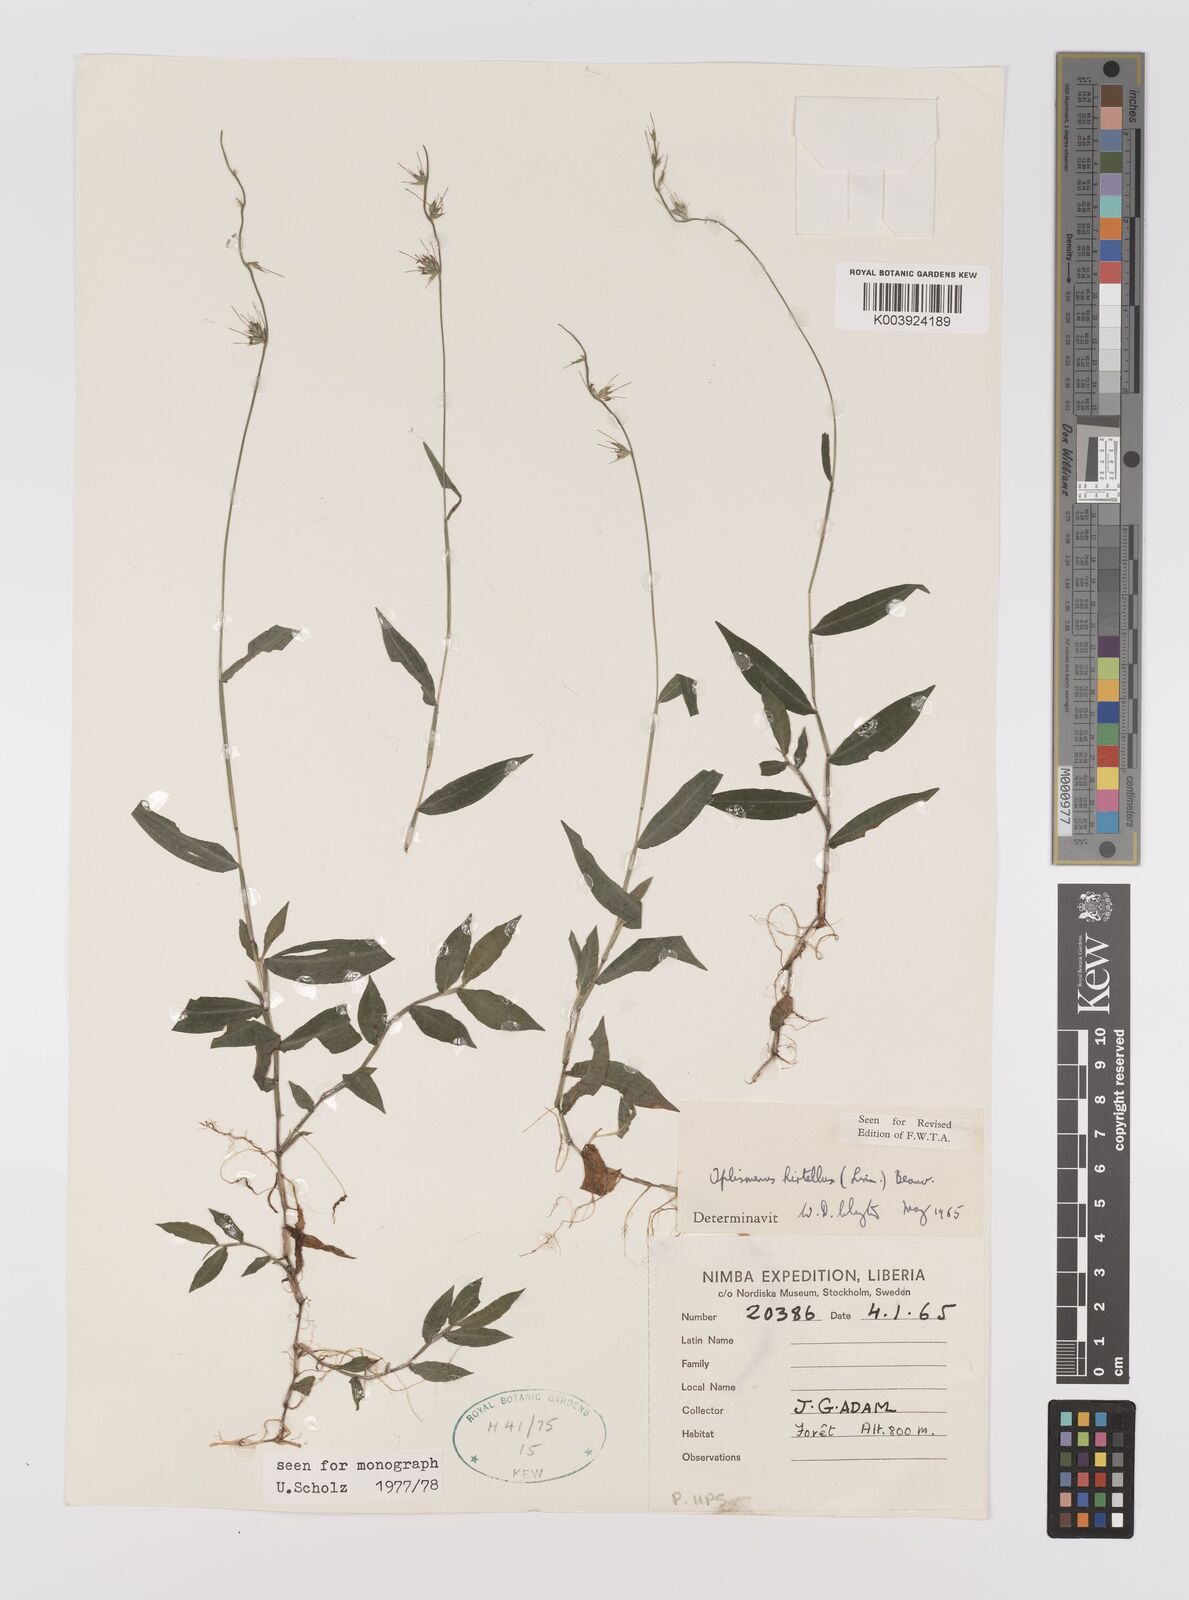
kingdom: Plantae
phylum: Tracheophyta
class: Liliopsida
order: Poales
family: Poaceae
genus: Oplismenus
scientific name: Oplismenus hirtellus
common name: Basketgrass
